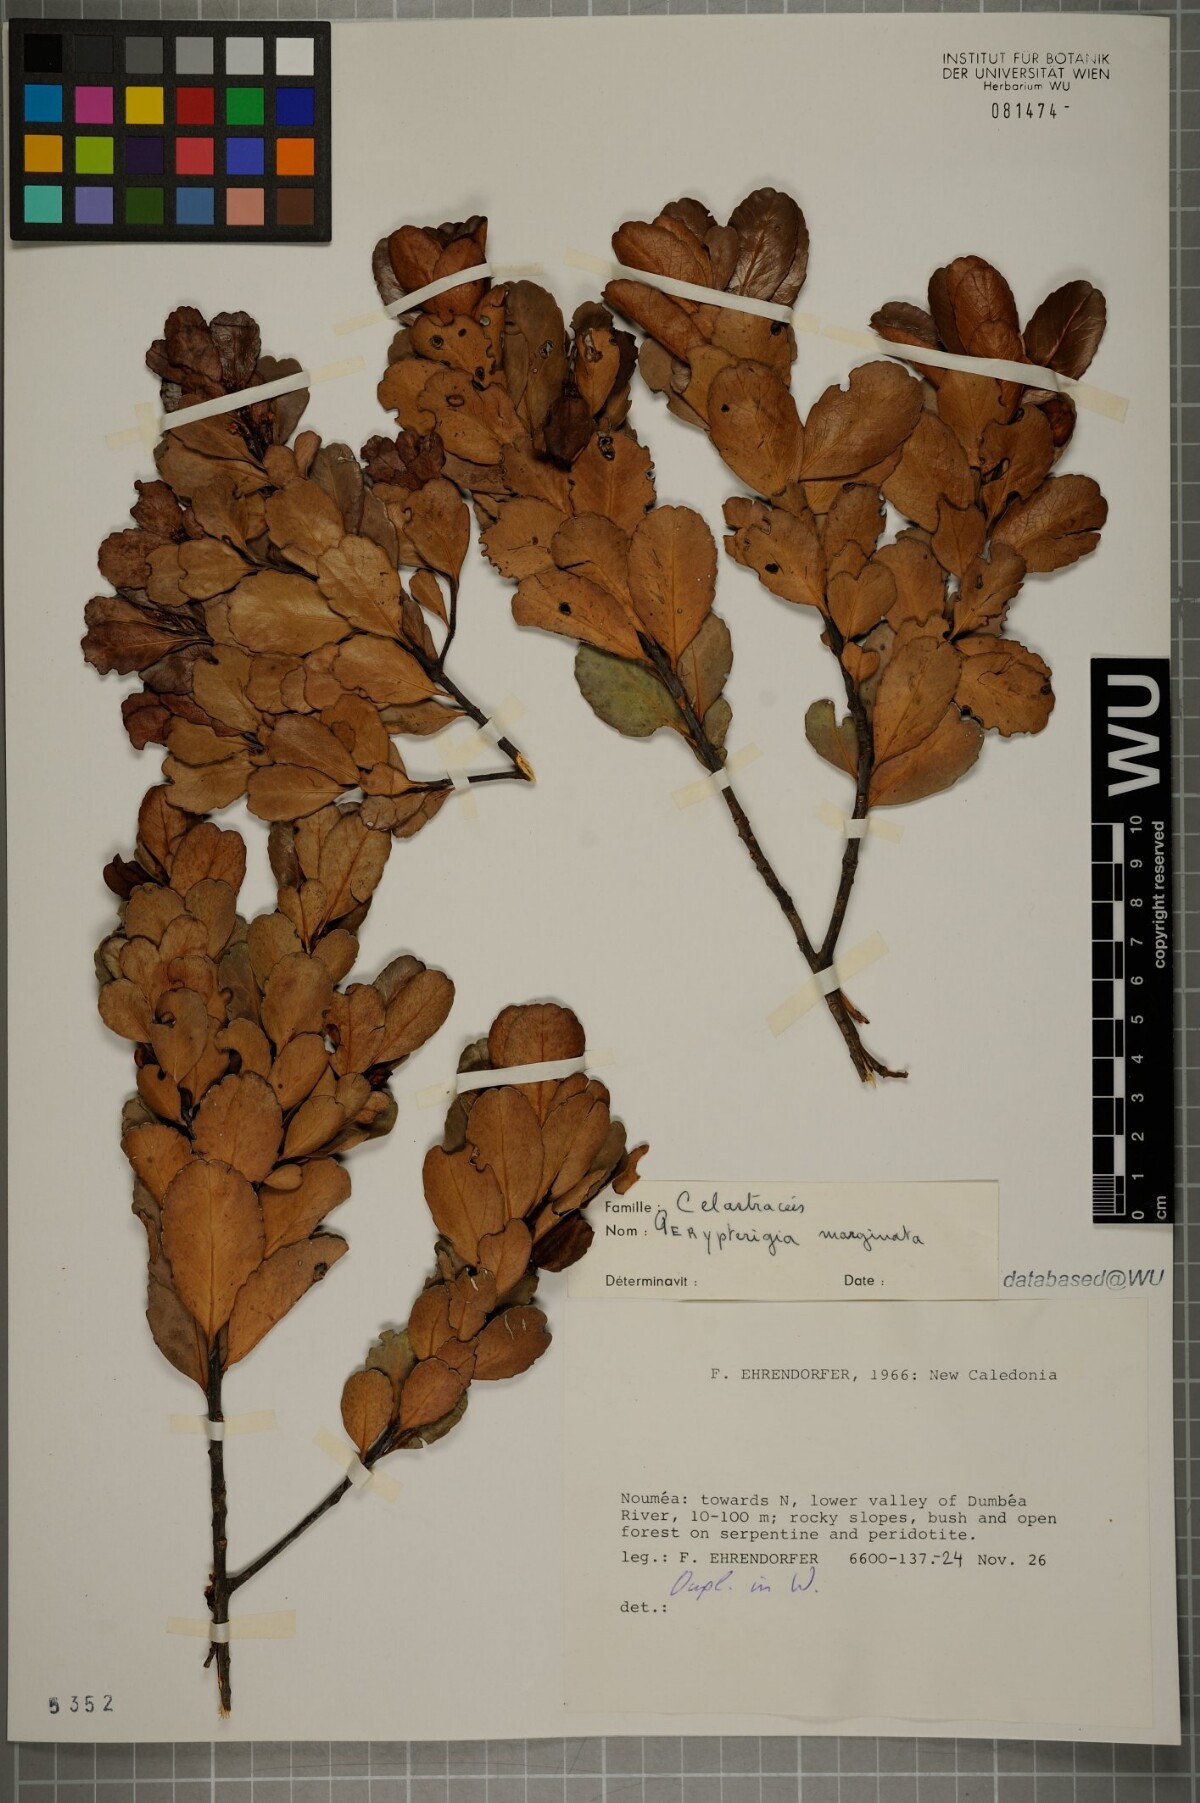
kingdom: Plantae
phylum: Tracheophyta
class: Magnoliopsida
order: Celastrales
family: Celastraceae
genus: Peripterygia
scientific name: Peripterygia marginata
